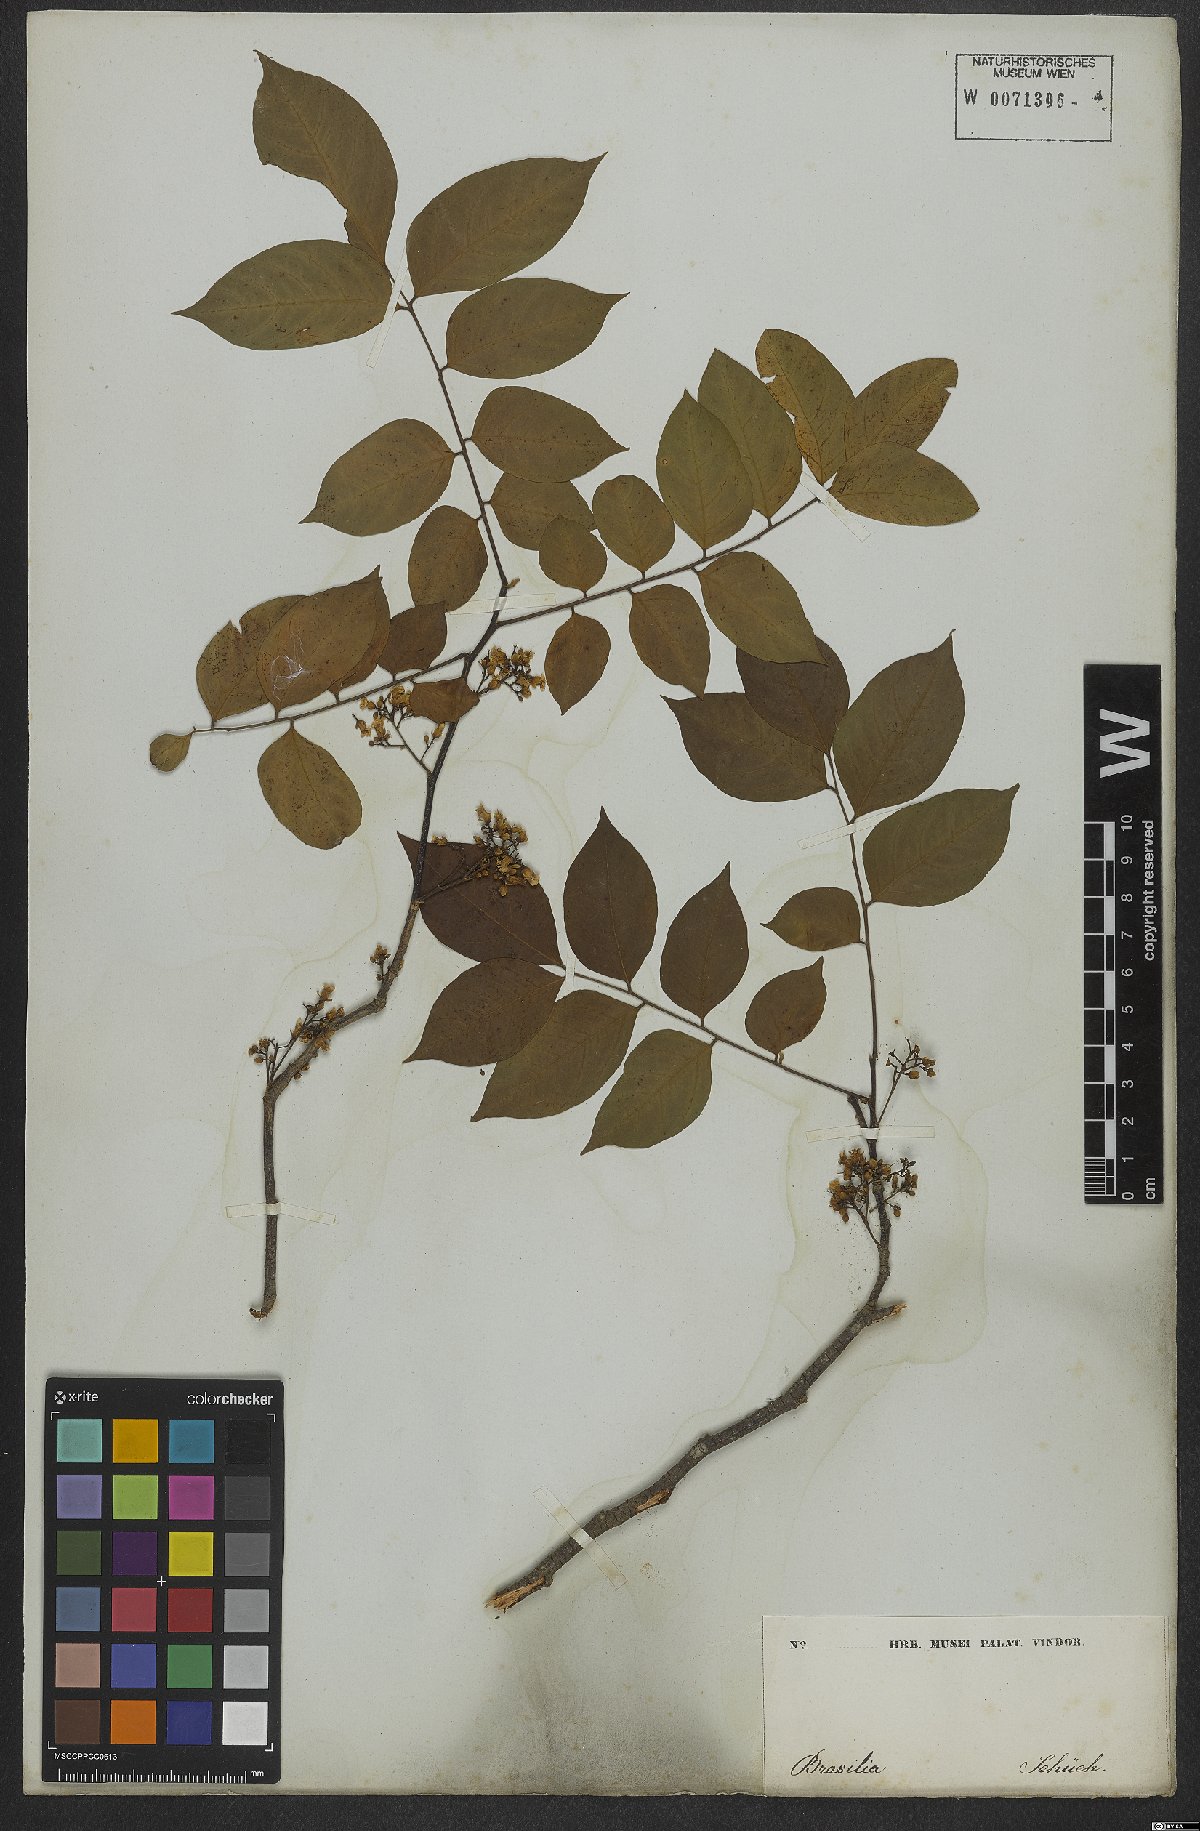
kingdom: Plantae
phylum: Tracheophyta
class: Magnoliopsida
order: Oxalidales
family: Oxalidaceae
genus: Averrhoa
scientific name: Averrhoa carambola
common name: Blimbing
